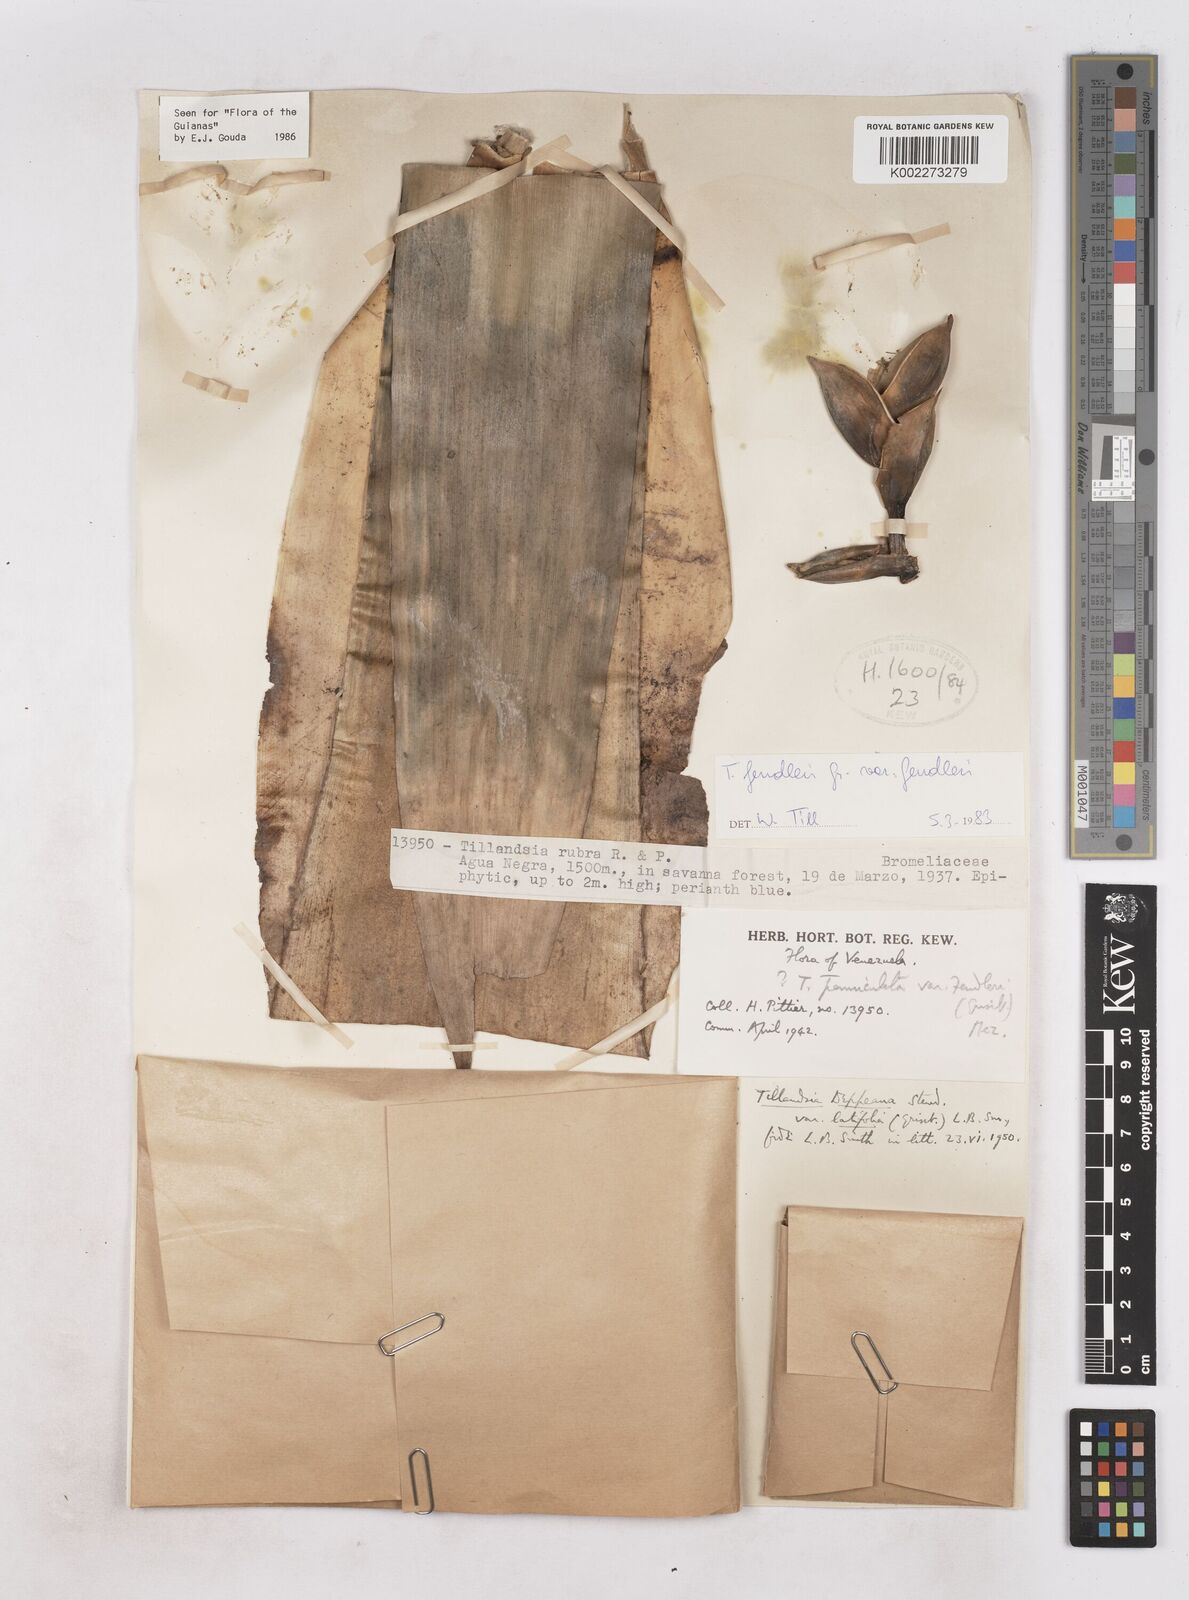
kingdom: Plantae
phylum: Tracheophyta
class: Liliopsida
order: Poales
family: Bromeliaceae
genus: Tillandsia
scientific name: Tillandsia fendleri
